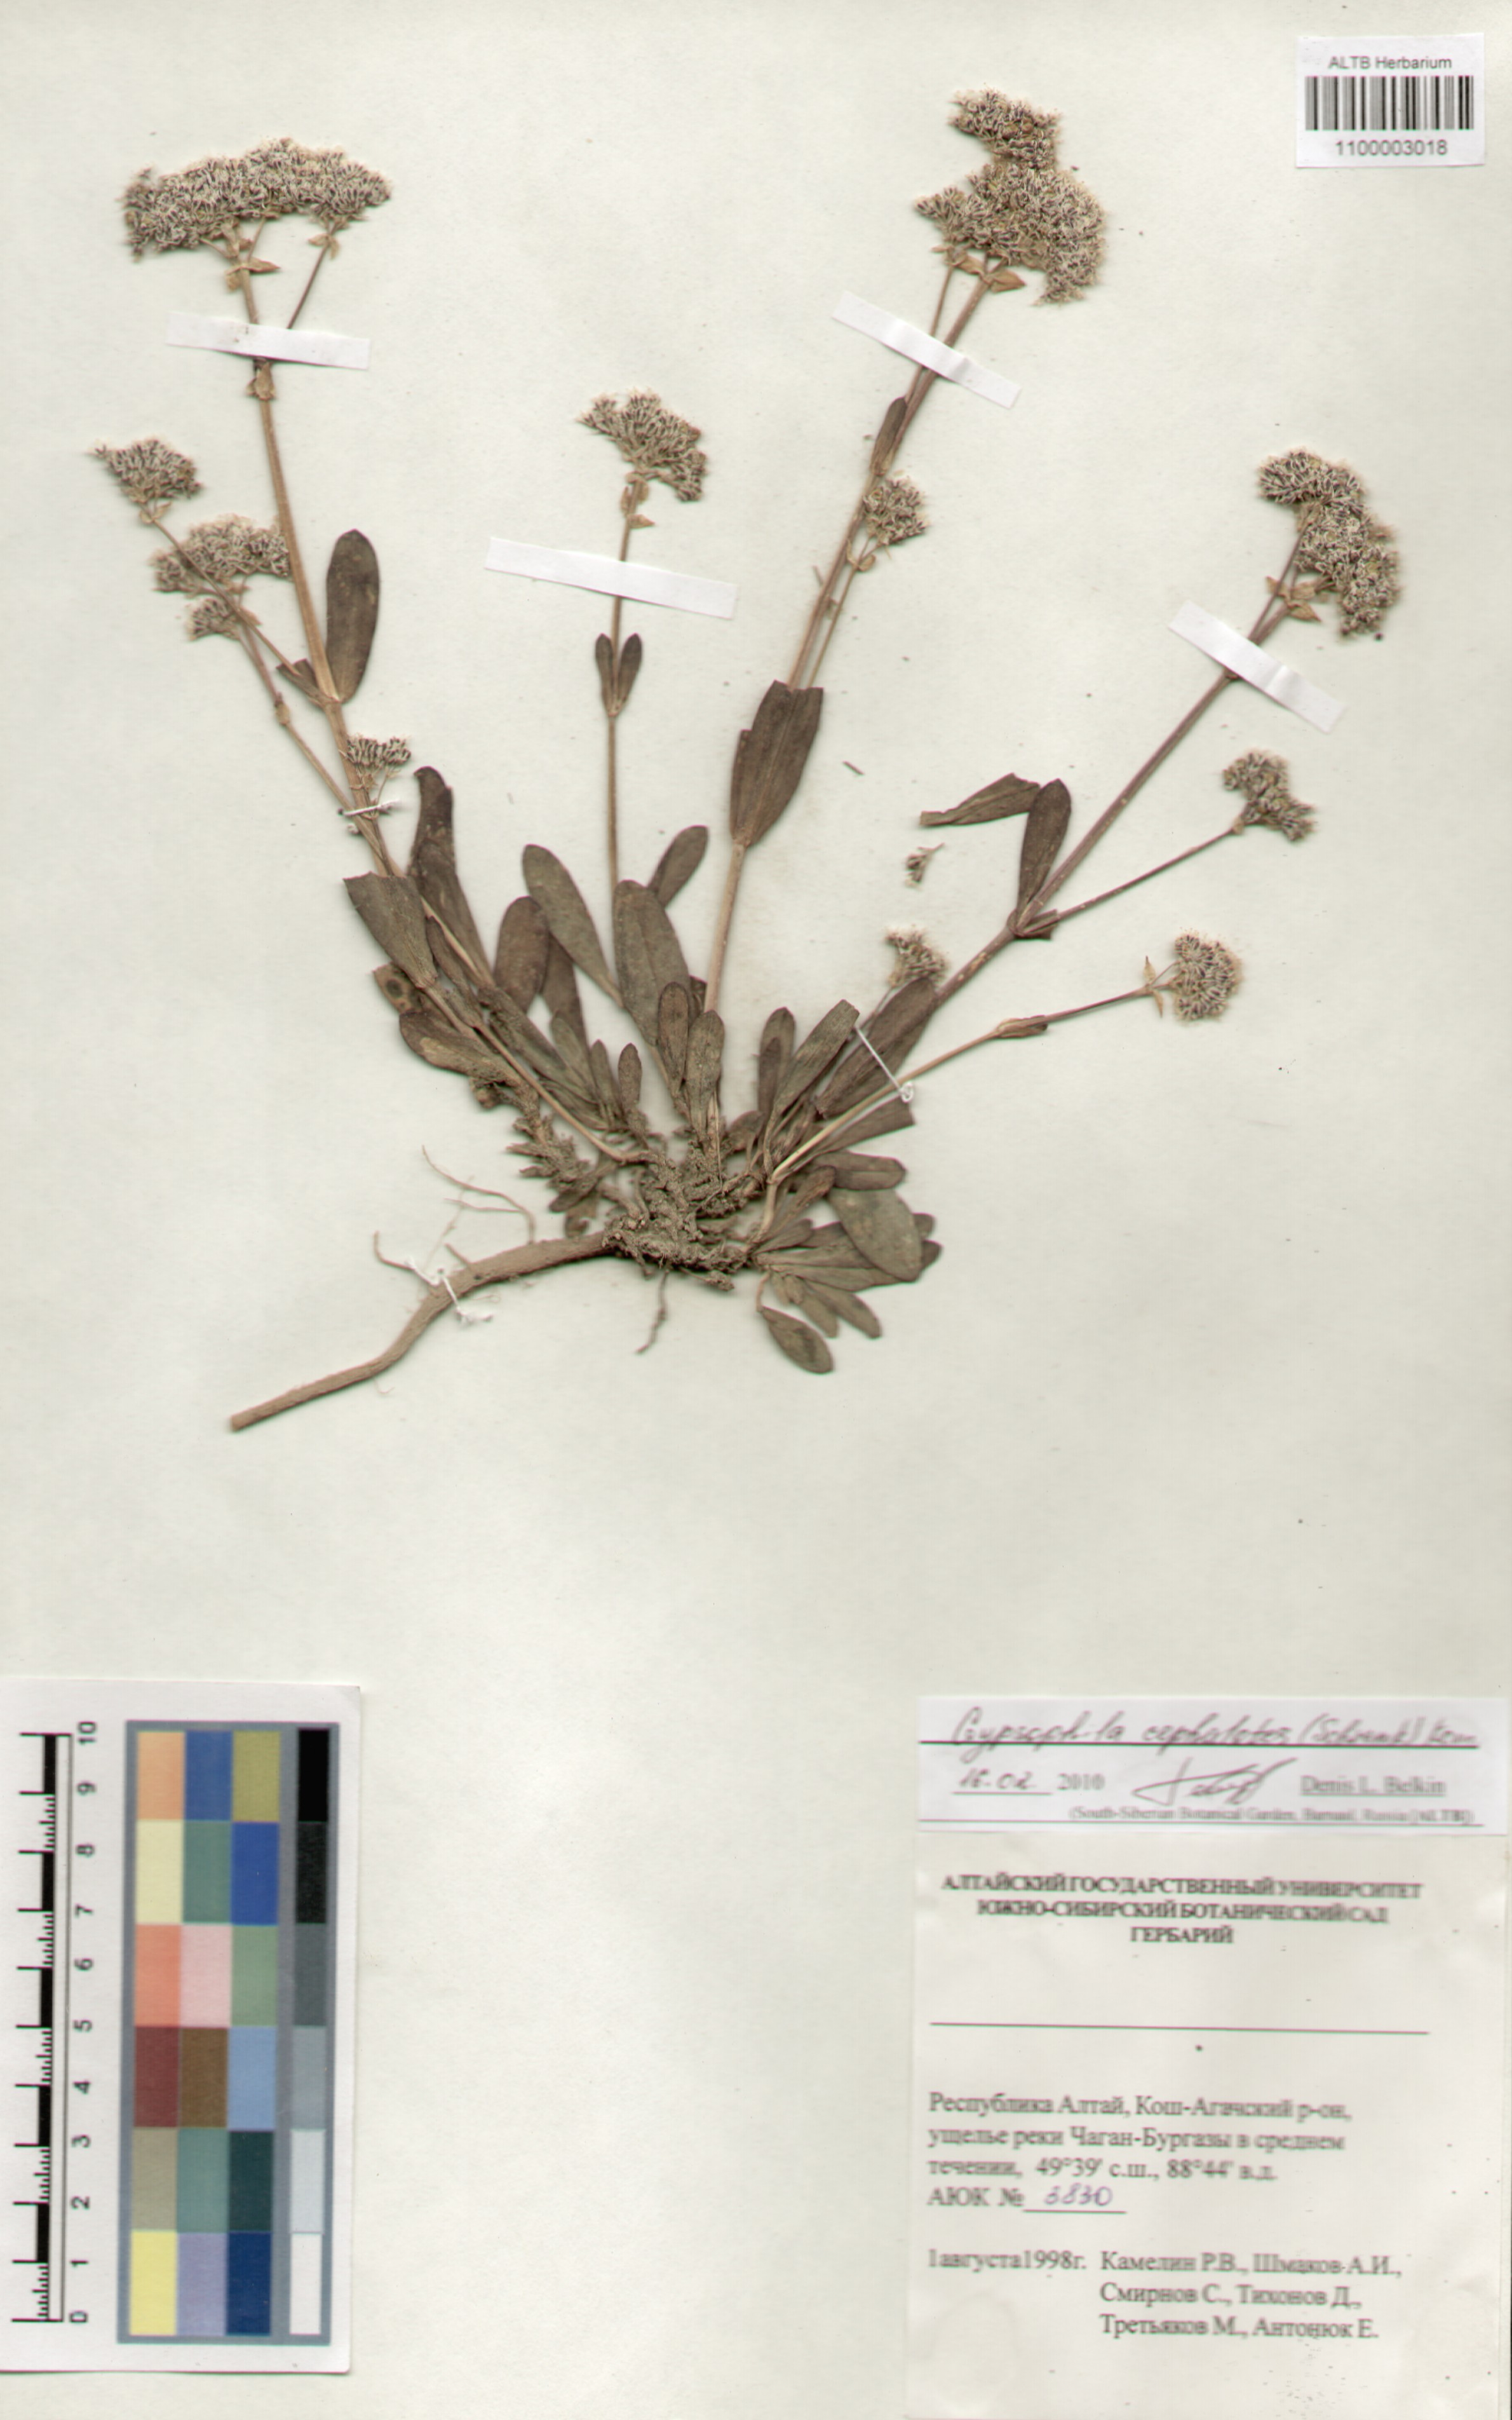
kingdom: Plantae
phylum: Tracheophyta
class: Magnoliopsida
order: Caryophyllales
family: Caryophyllaceae
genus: Gypsophila
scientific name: Gypsophila cephalotes
